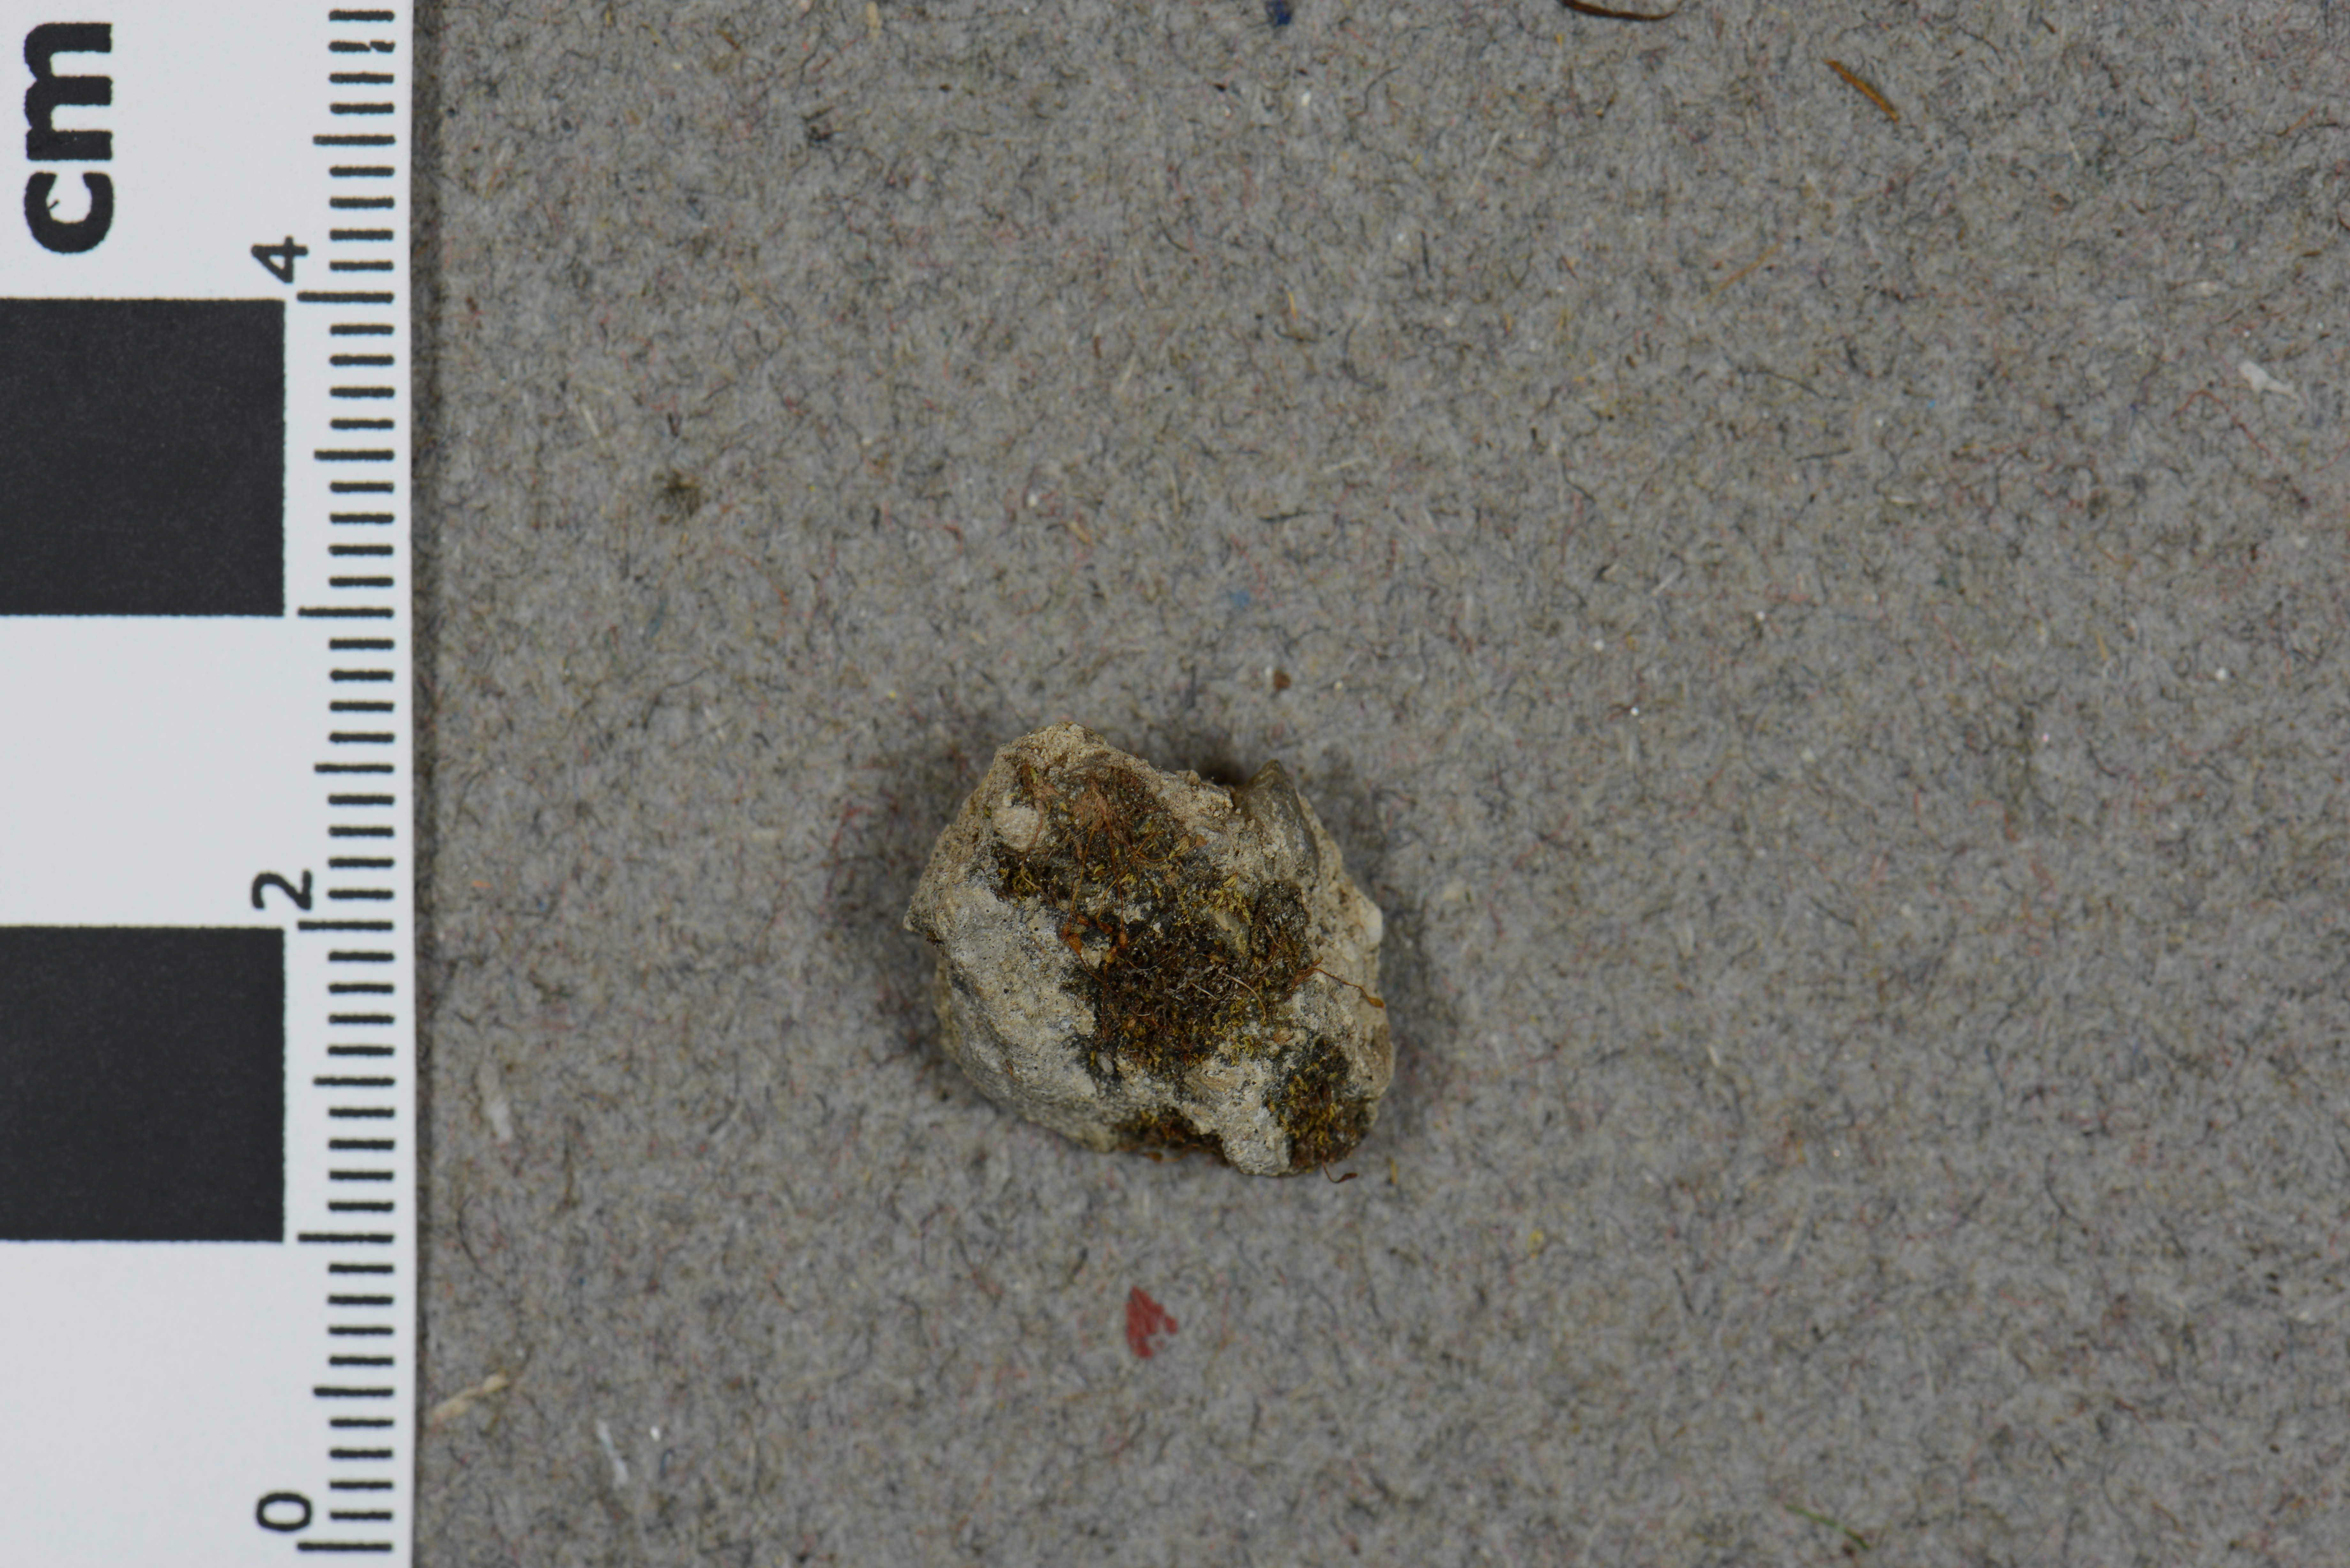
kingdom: Plantae
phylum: Bryophyta
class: Bryopsida
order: Pottiales
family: Pottiaceae
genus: Gyroweisia
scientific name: Gyroweisia tenuis
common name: Slender stubble-moss
